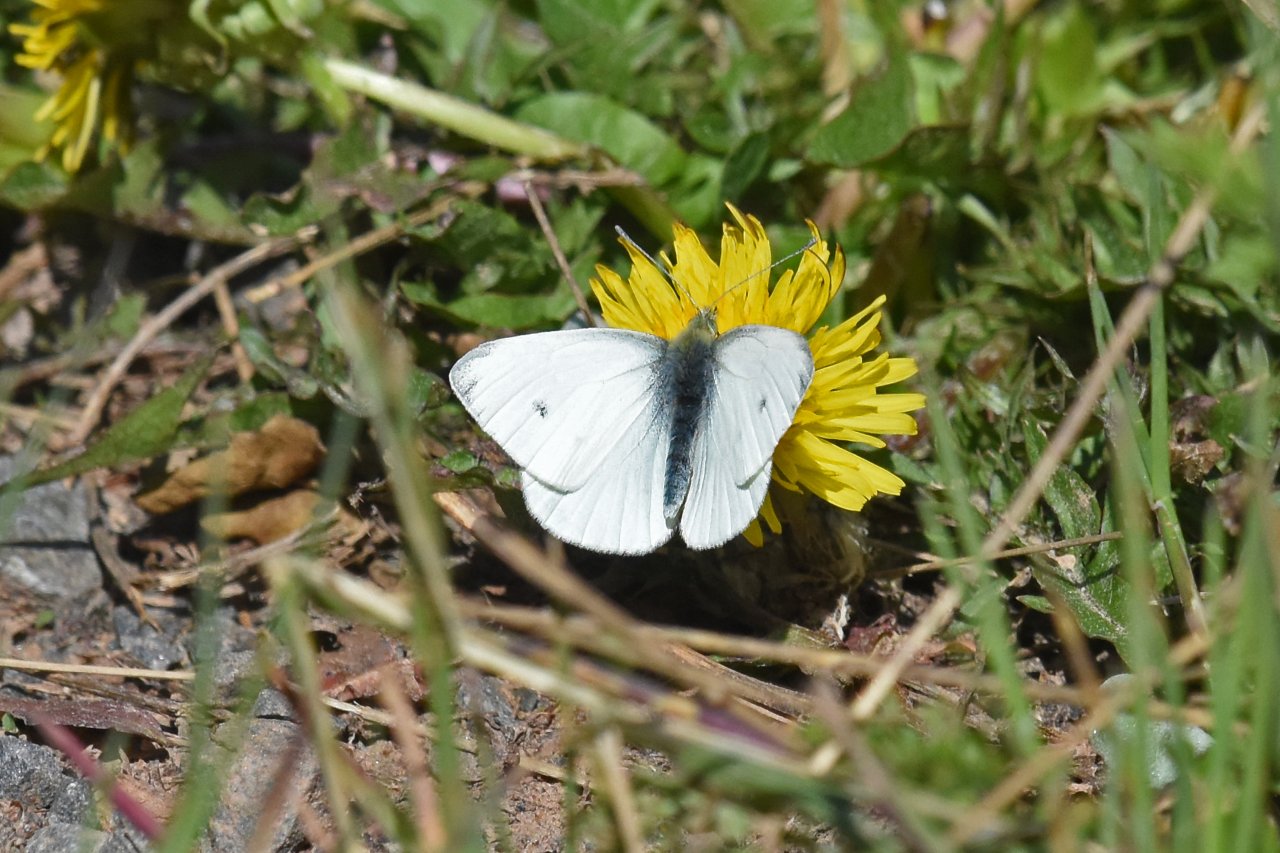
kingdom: Animalia
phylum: Arthropoda
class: Insecta
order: Lepidoptera
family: Pieridae
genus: Pieris
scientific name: Pieris rapae
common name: Cabbage White
